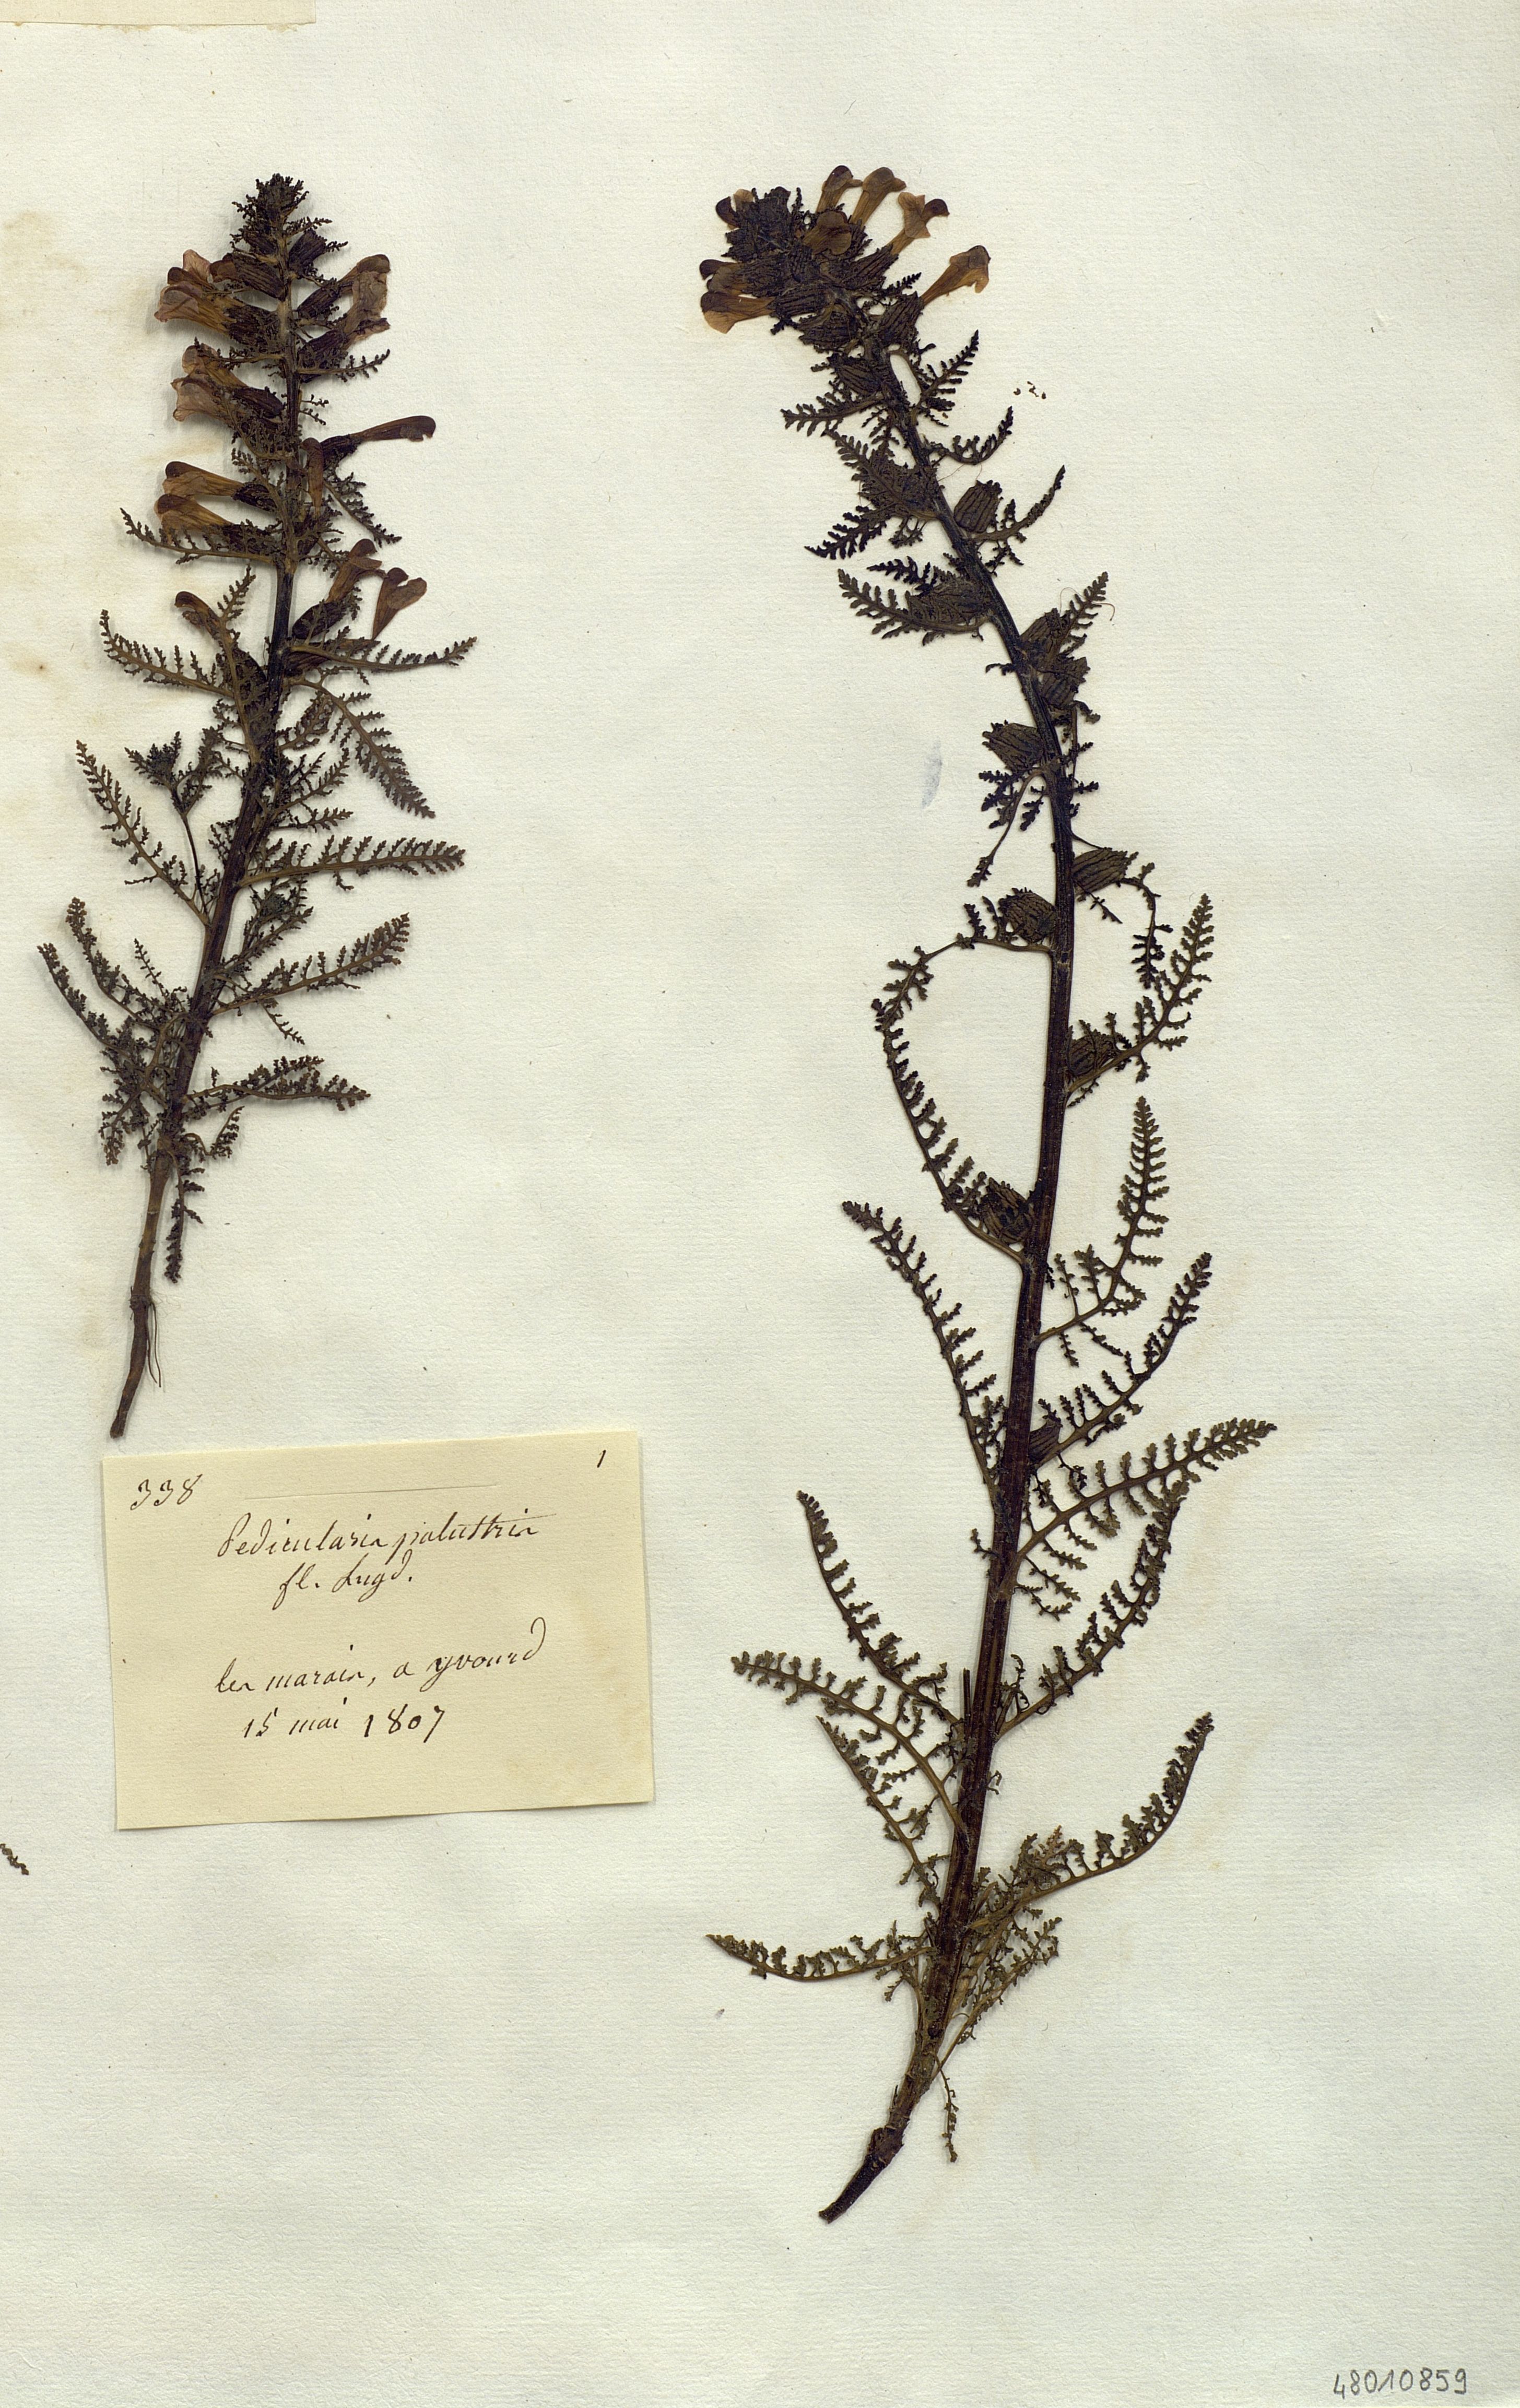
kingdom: Plantae
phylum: Tracheophyta
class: Magnoliopsida
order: Lamiales
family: Orobanchaceae
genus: Pedicularis
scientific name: Pedicularis palustris
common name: Marsh lousewort
